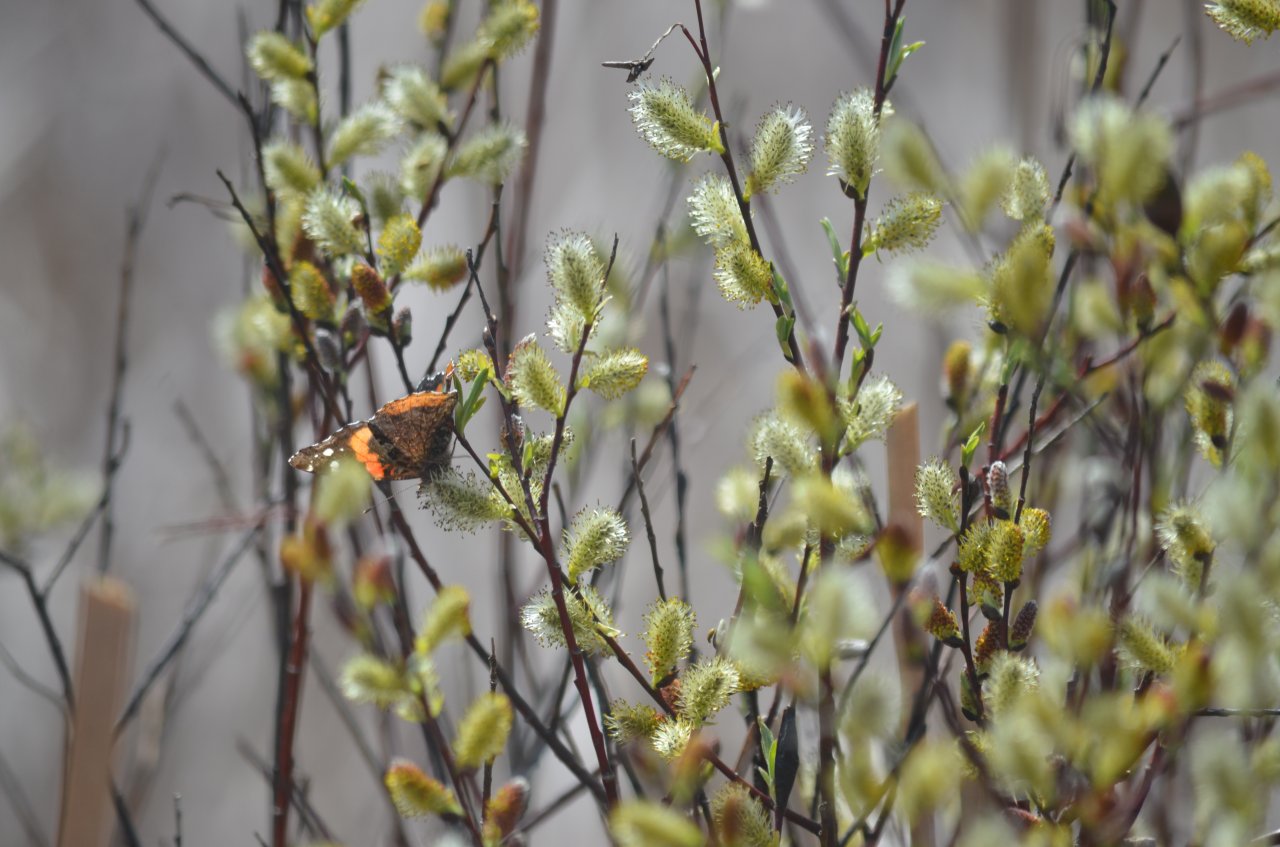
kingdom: Animalia
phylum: Arthropoda
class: Insecta
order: Lepidoptera
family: Nymphalidae
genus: Vanessa
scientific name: Vanessa atalanta
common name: Red Admiral
